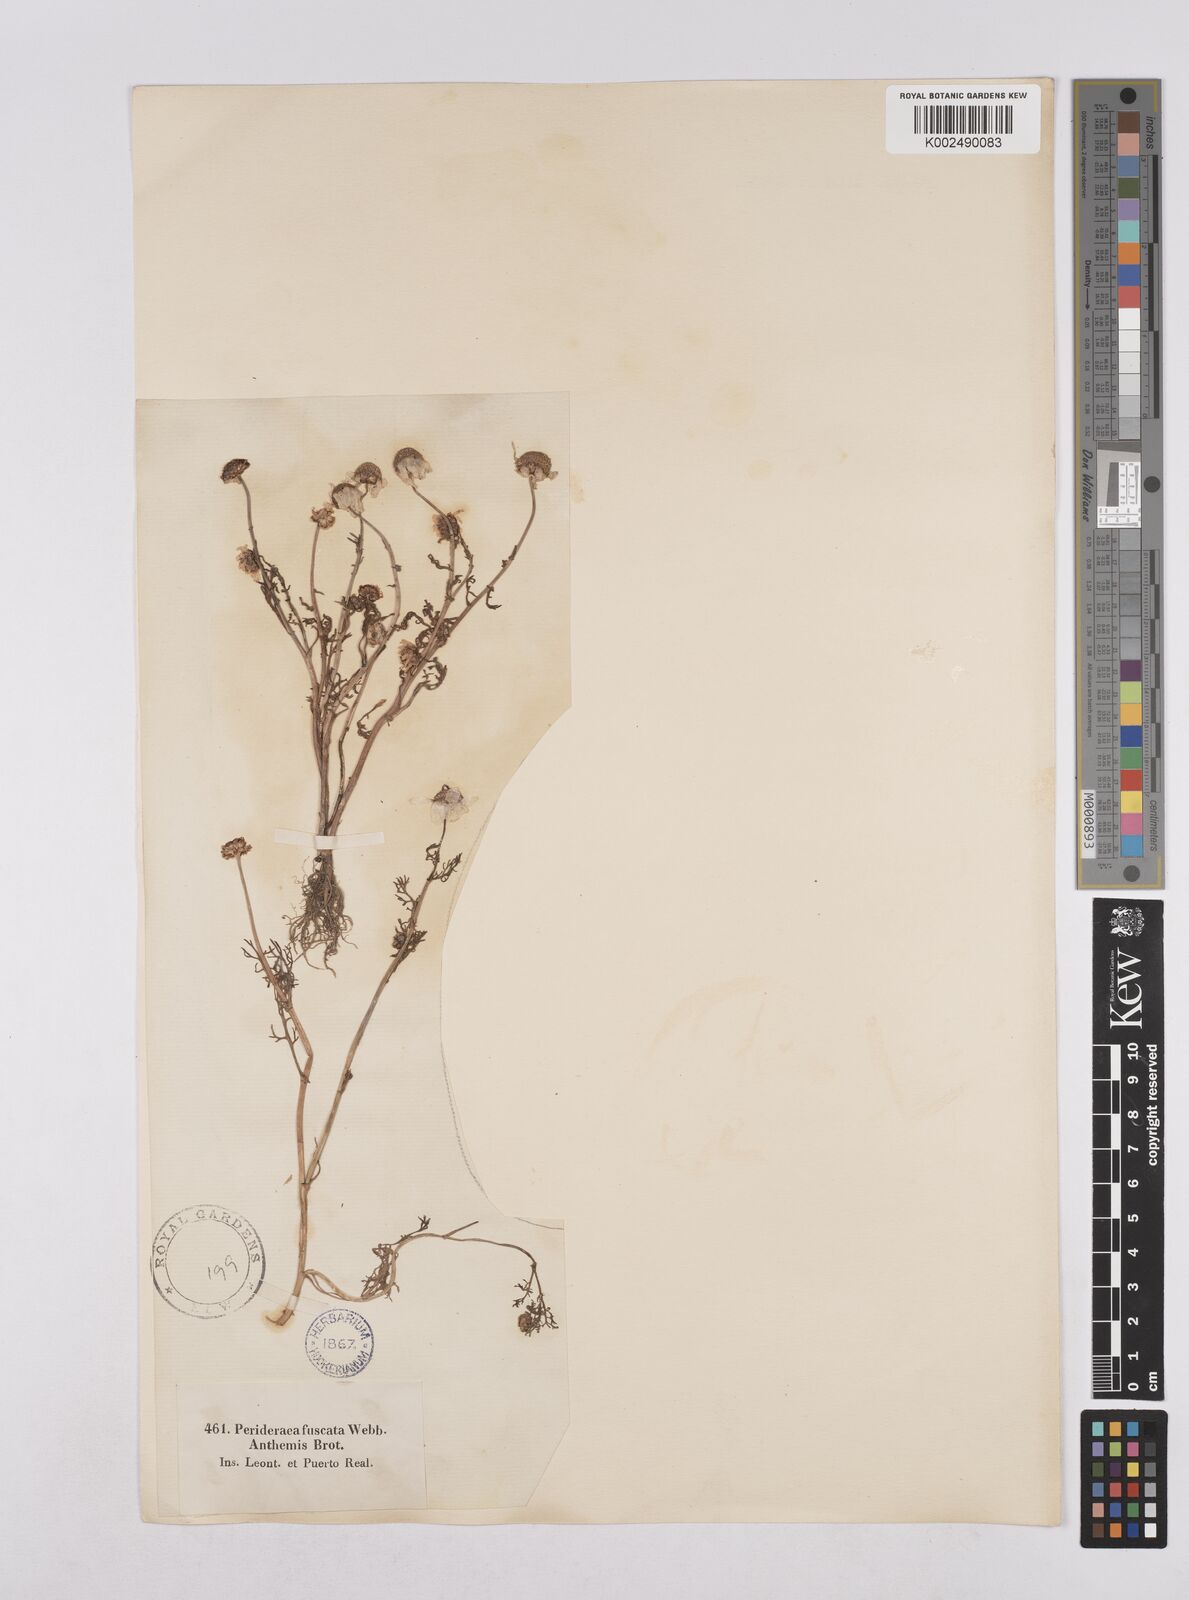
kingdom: Plantae
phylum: Tracheophyta
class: Magnoliopsida
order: Asterales
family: Asteraceae
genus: Chamaemelum
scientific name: Chamaemelum fuscatum
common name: Chamomile
